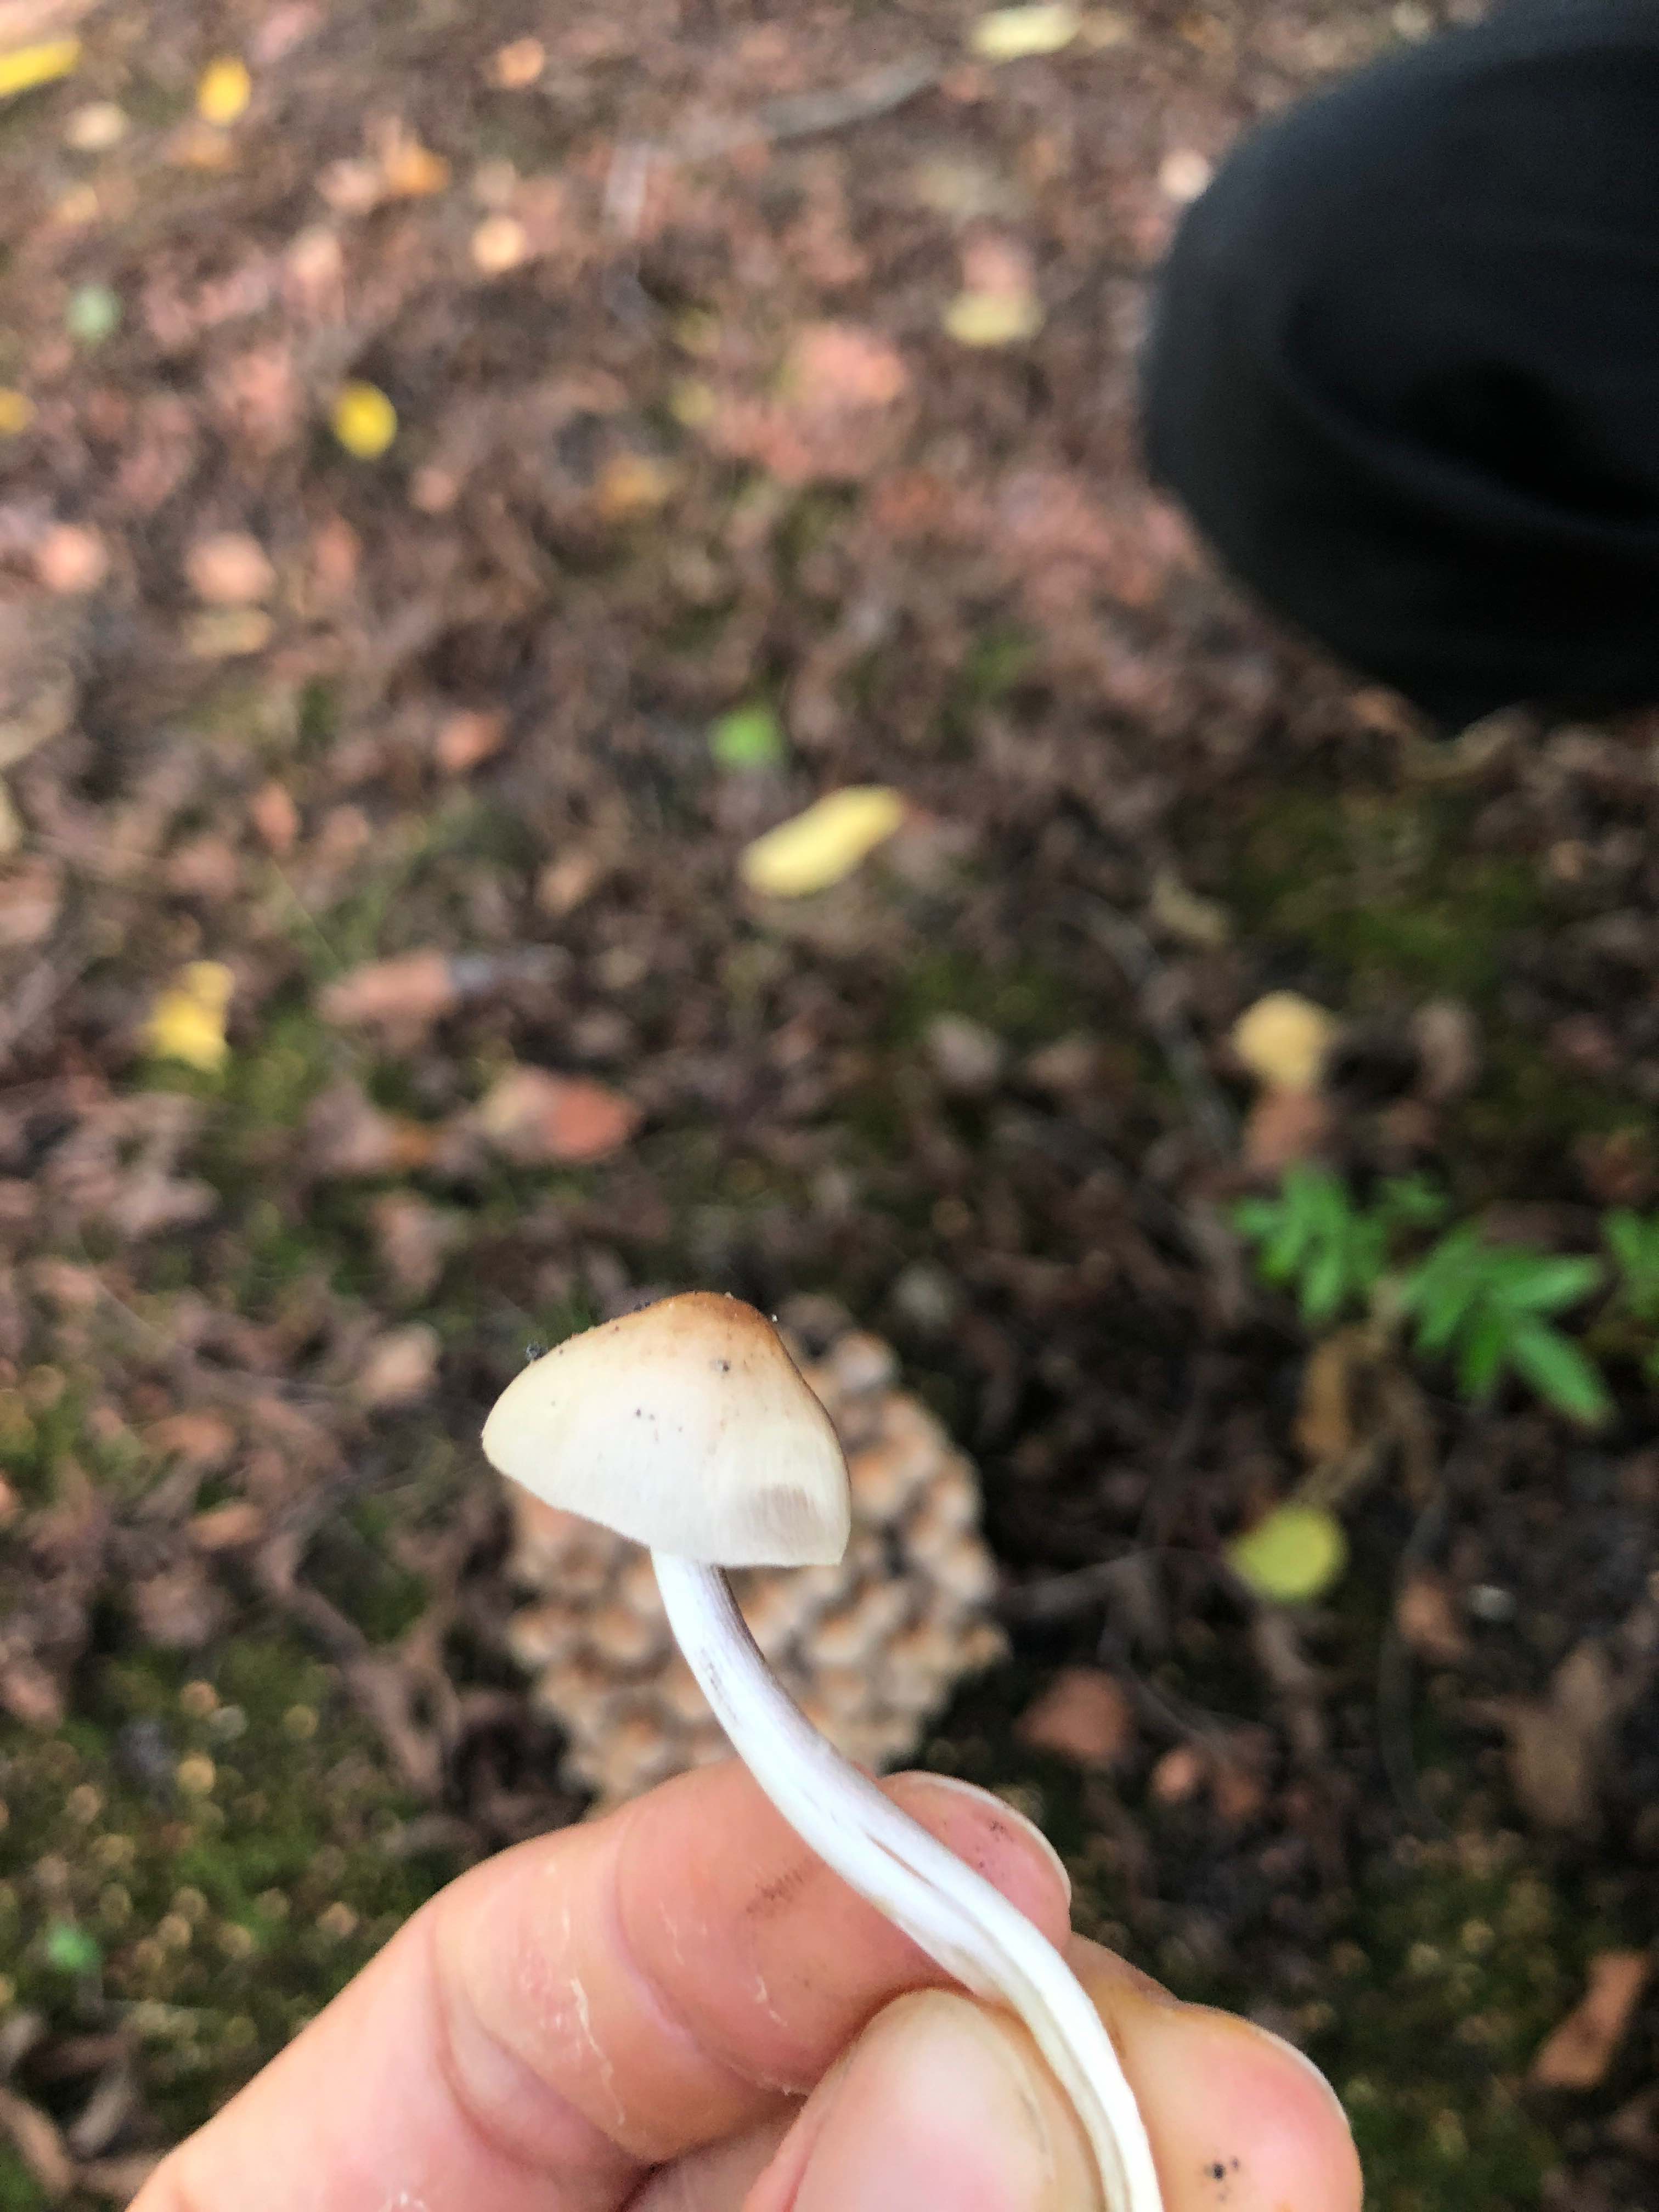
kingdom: Fungi
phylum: Basidiomycota
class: Agaricomycetes
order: Agaricales
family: Psathyrellaceae
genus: Britzelmayria
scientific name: Britzelmayria multipedata
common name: knippe-mørkhat
